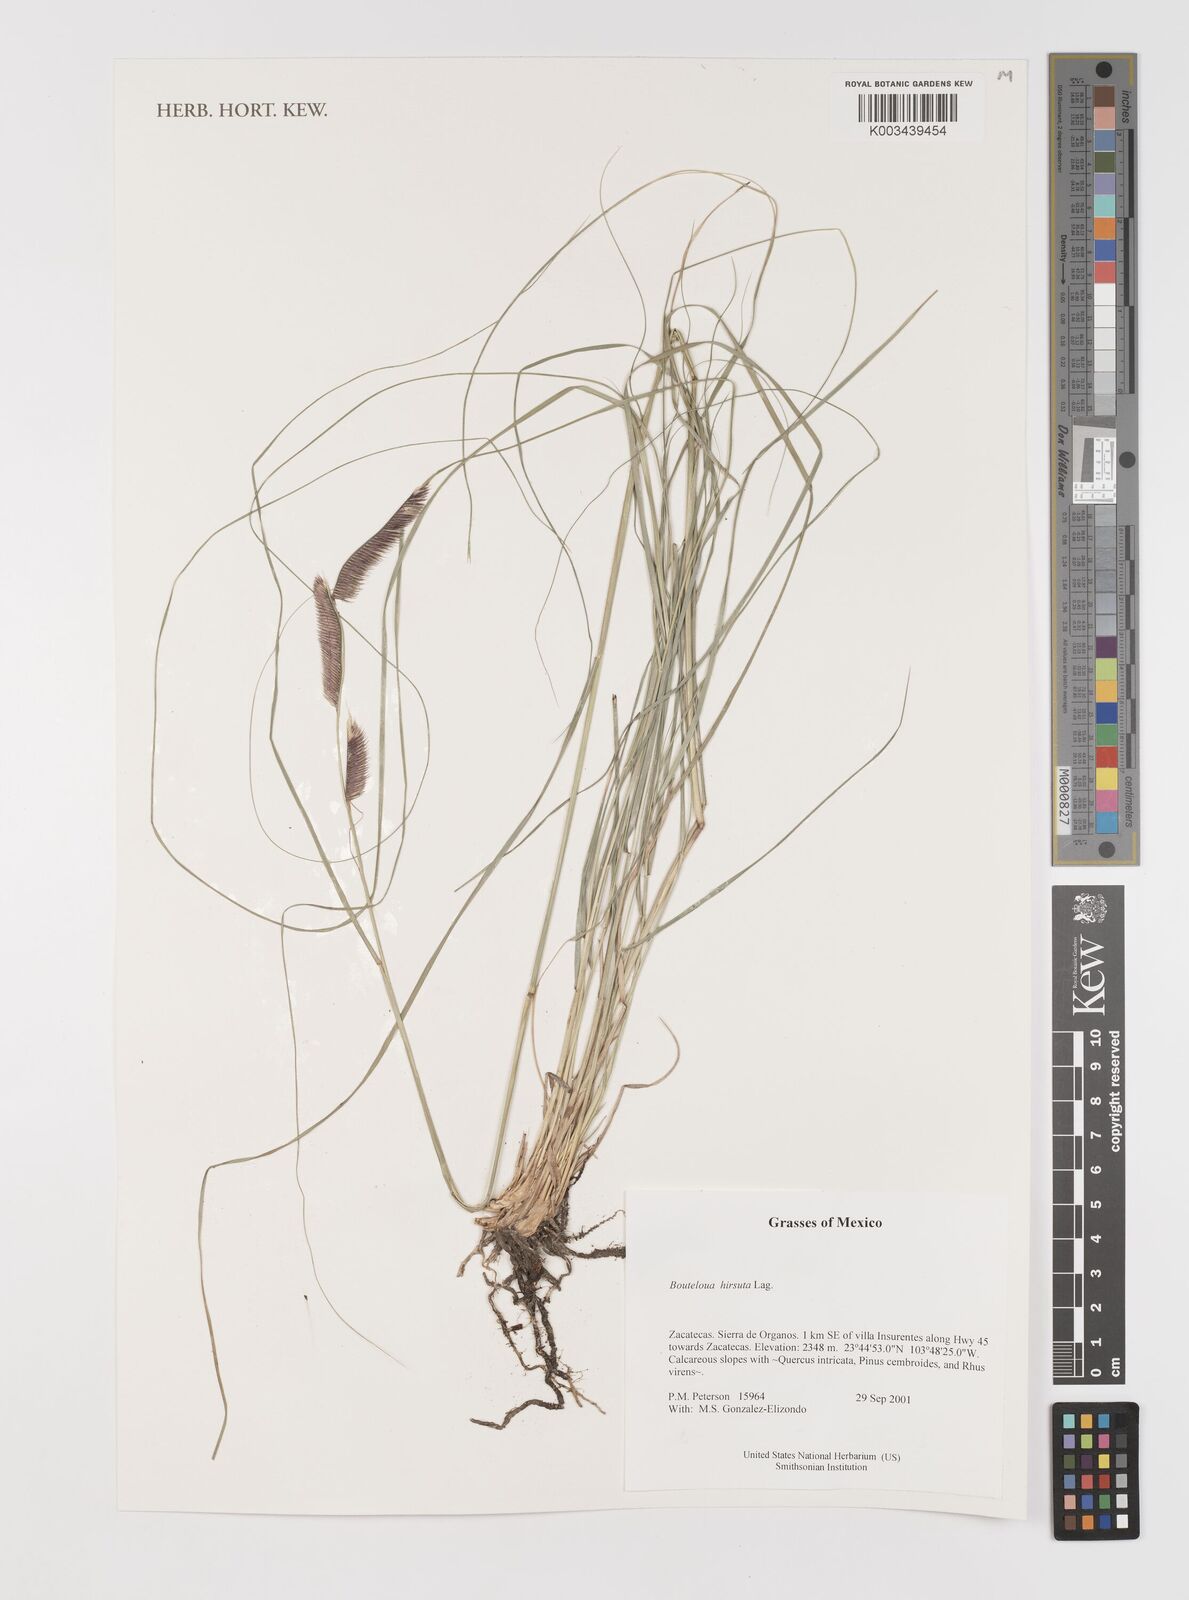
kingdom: Plantae
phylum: Tracheophyta
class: Liliopsida
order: Poales
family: Poaceae
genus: Bouteloua
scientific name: Bouteloua hirsuta
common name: Hairy grama
